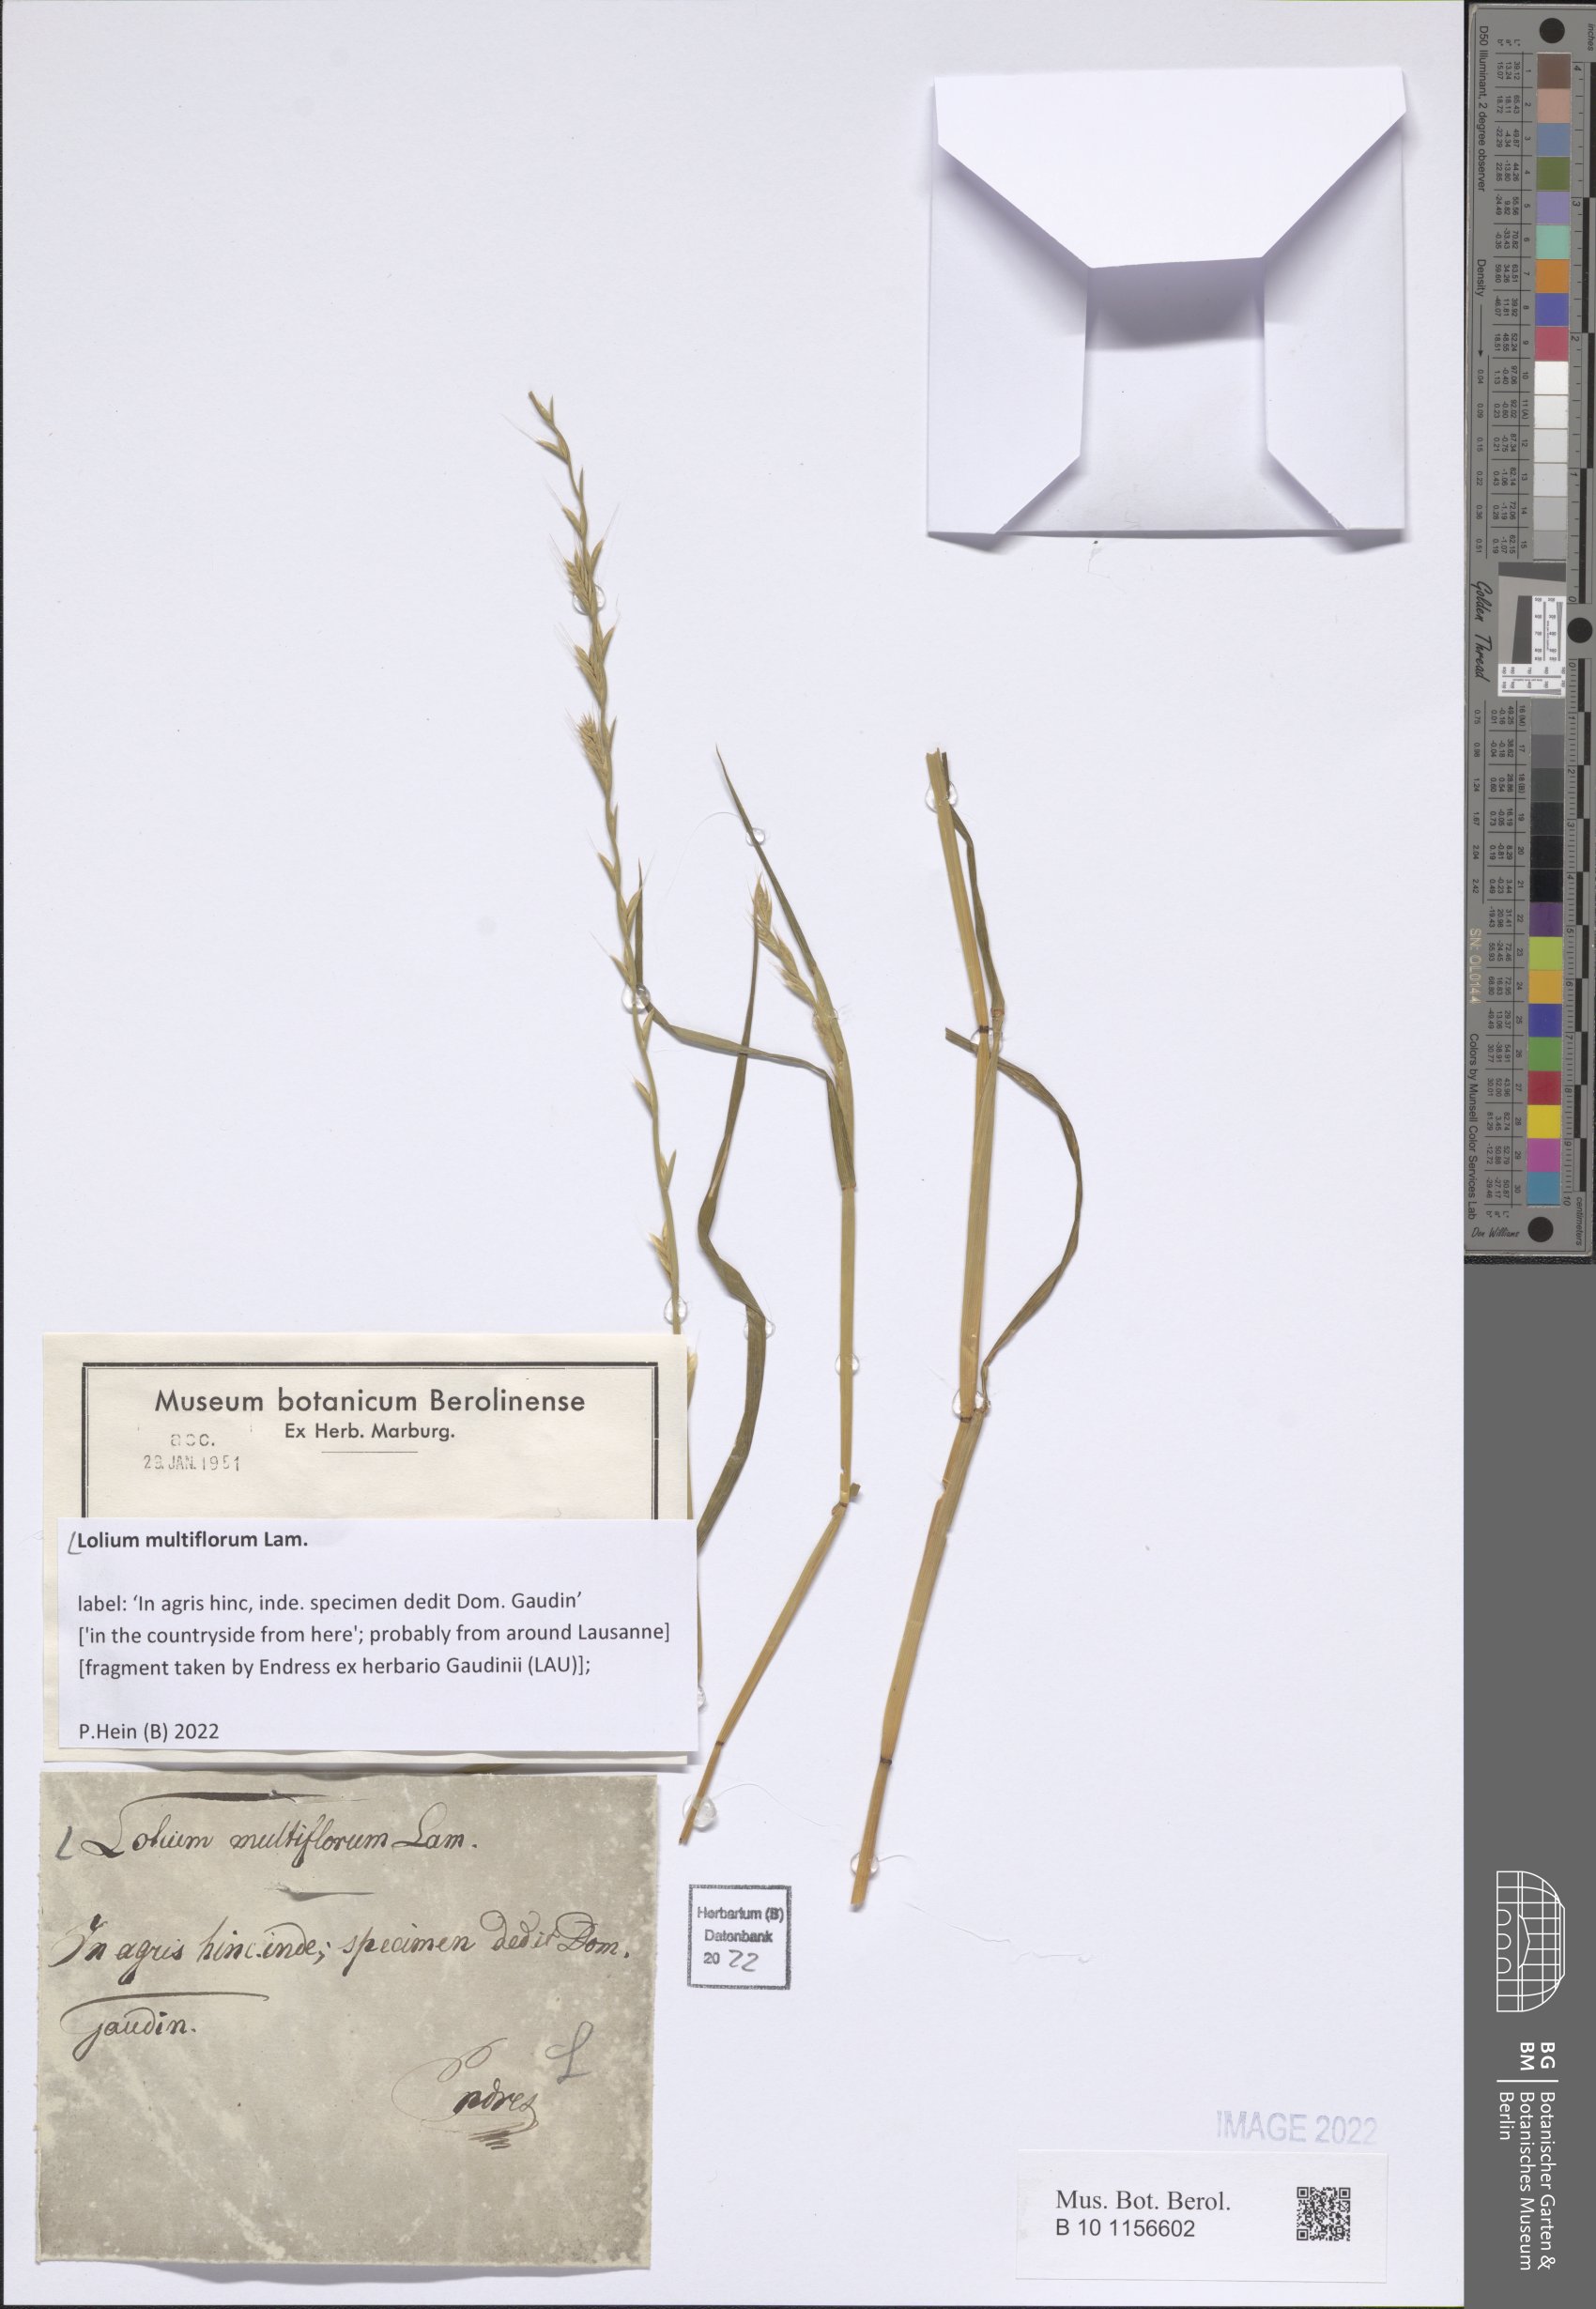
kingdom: Plantae
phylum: Tracheophyta
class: Liliopsida
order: Poales
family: Poaceae
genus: Lolium
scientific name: Lolium multiflorum
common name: Annual ryegrass
